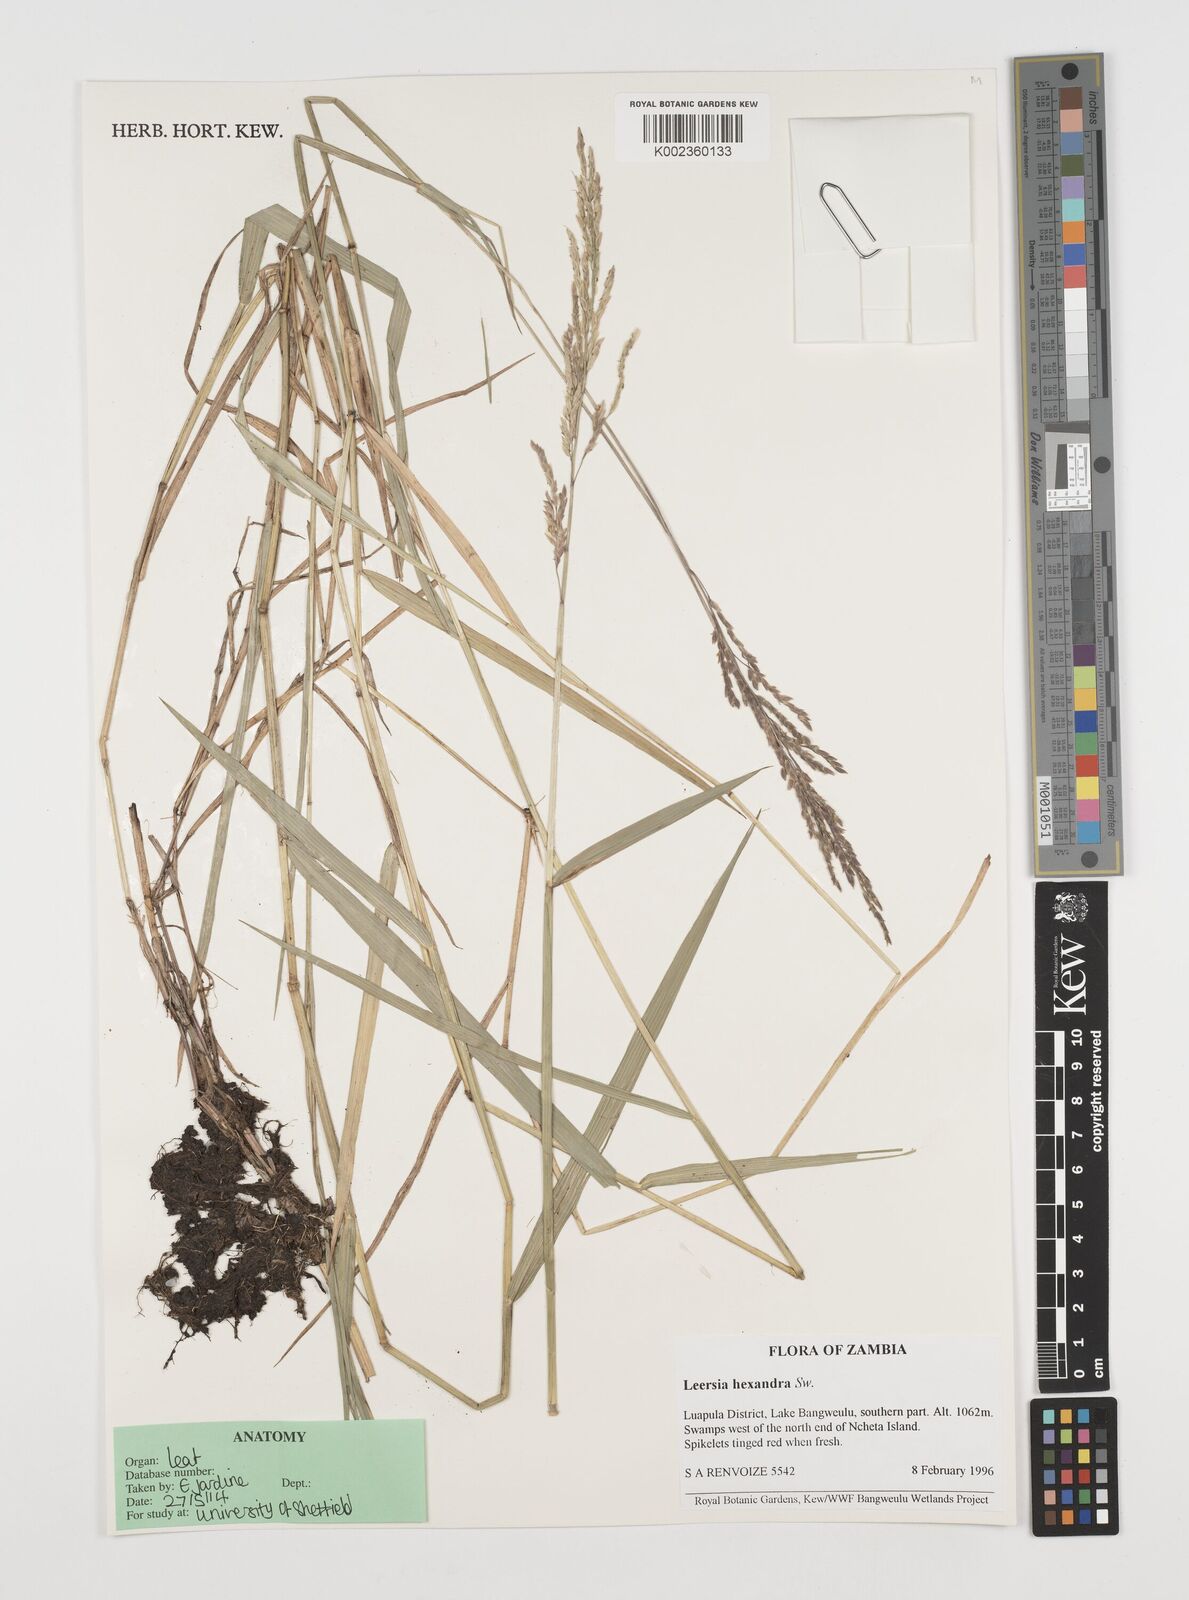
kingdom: Plantae
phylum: Tracheophyta
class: Liliopsida
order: Poales
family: Poaceae
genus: Leersia
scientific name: Leersia hexandra
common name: Southern cut grass
